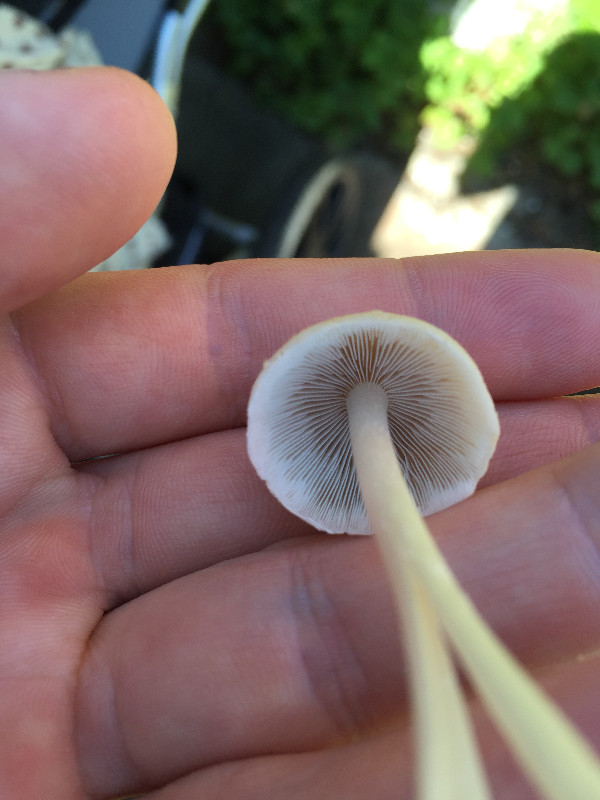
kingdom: Fungi
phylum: Basidiomycota
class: Agaricomycetes
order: Agaricales
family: Psathyrellaceae
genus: Candolleomyces
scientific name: Candolleomyces candolleanus
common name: Candolles mørkhat
